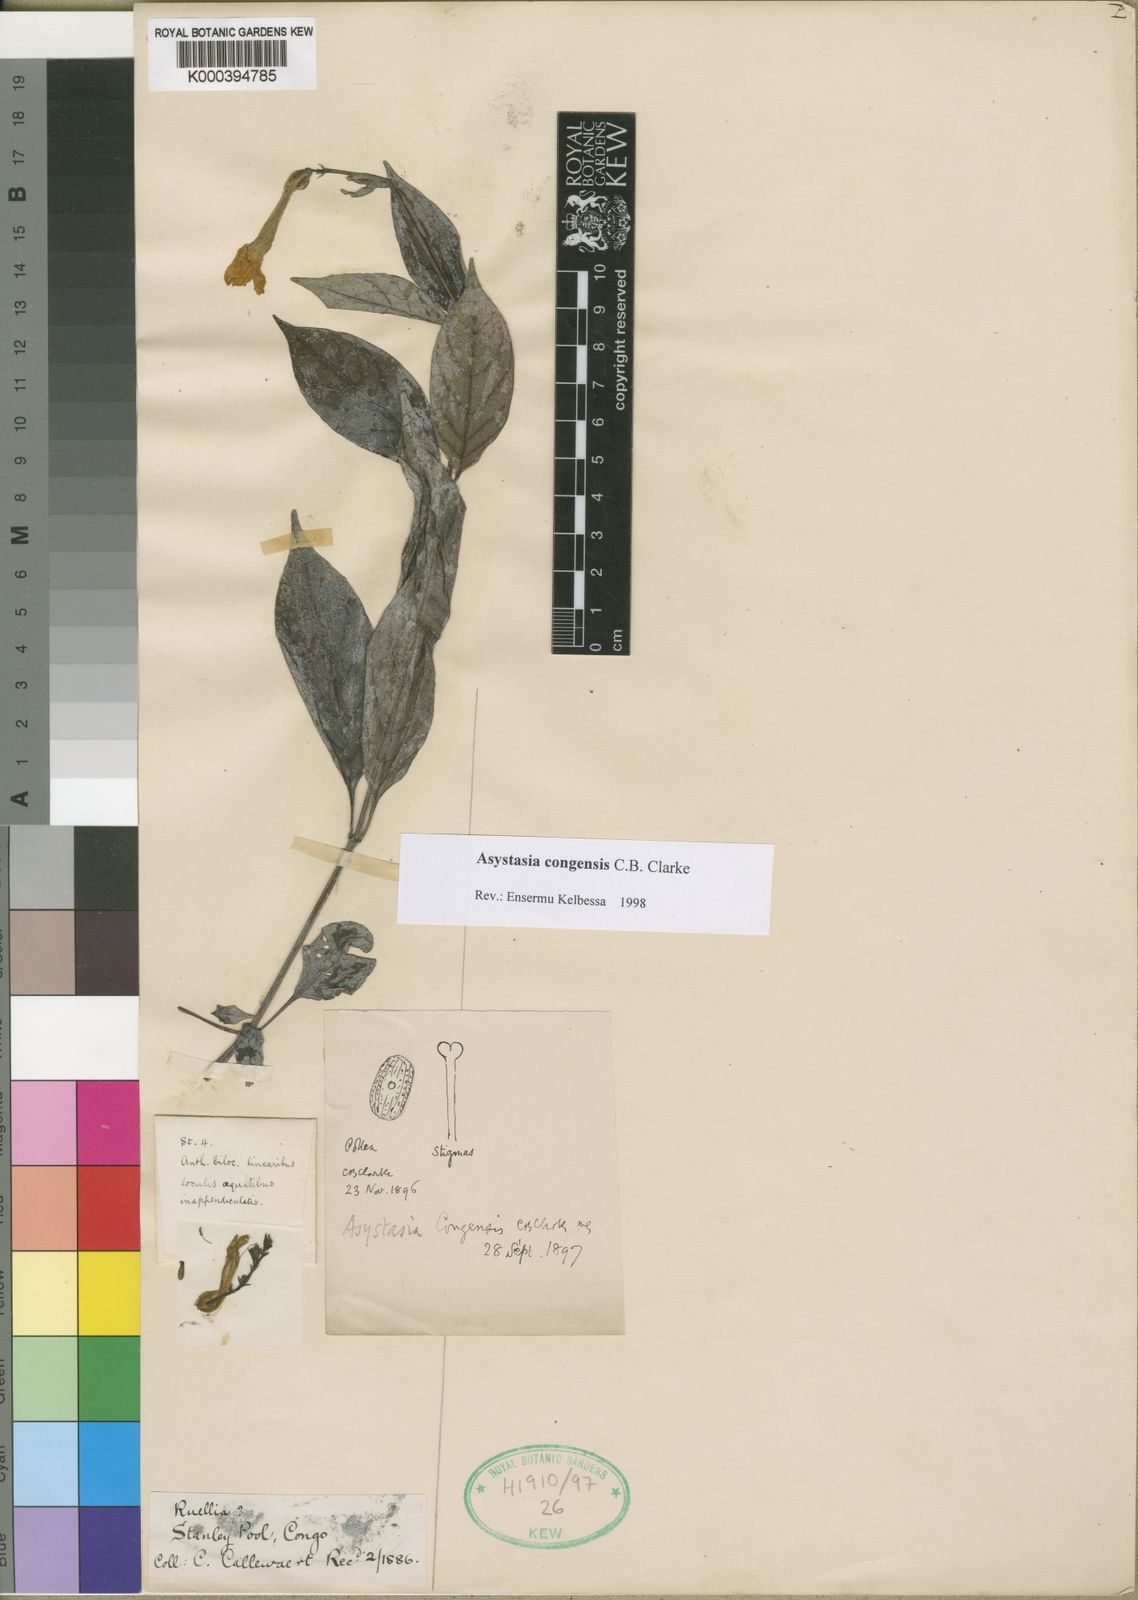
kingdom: Plantae
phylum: Tracheophyta
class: Magnoliopsida
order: Lamiales
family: Acanthaceae
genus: Asystasia
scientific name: Asystasia congensis
